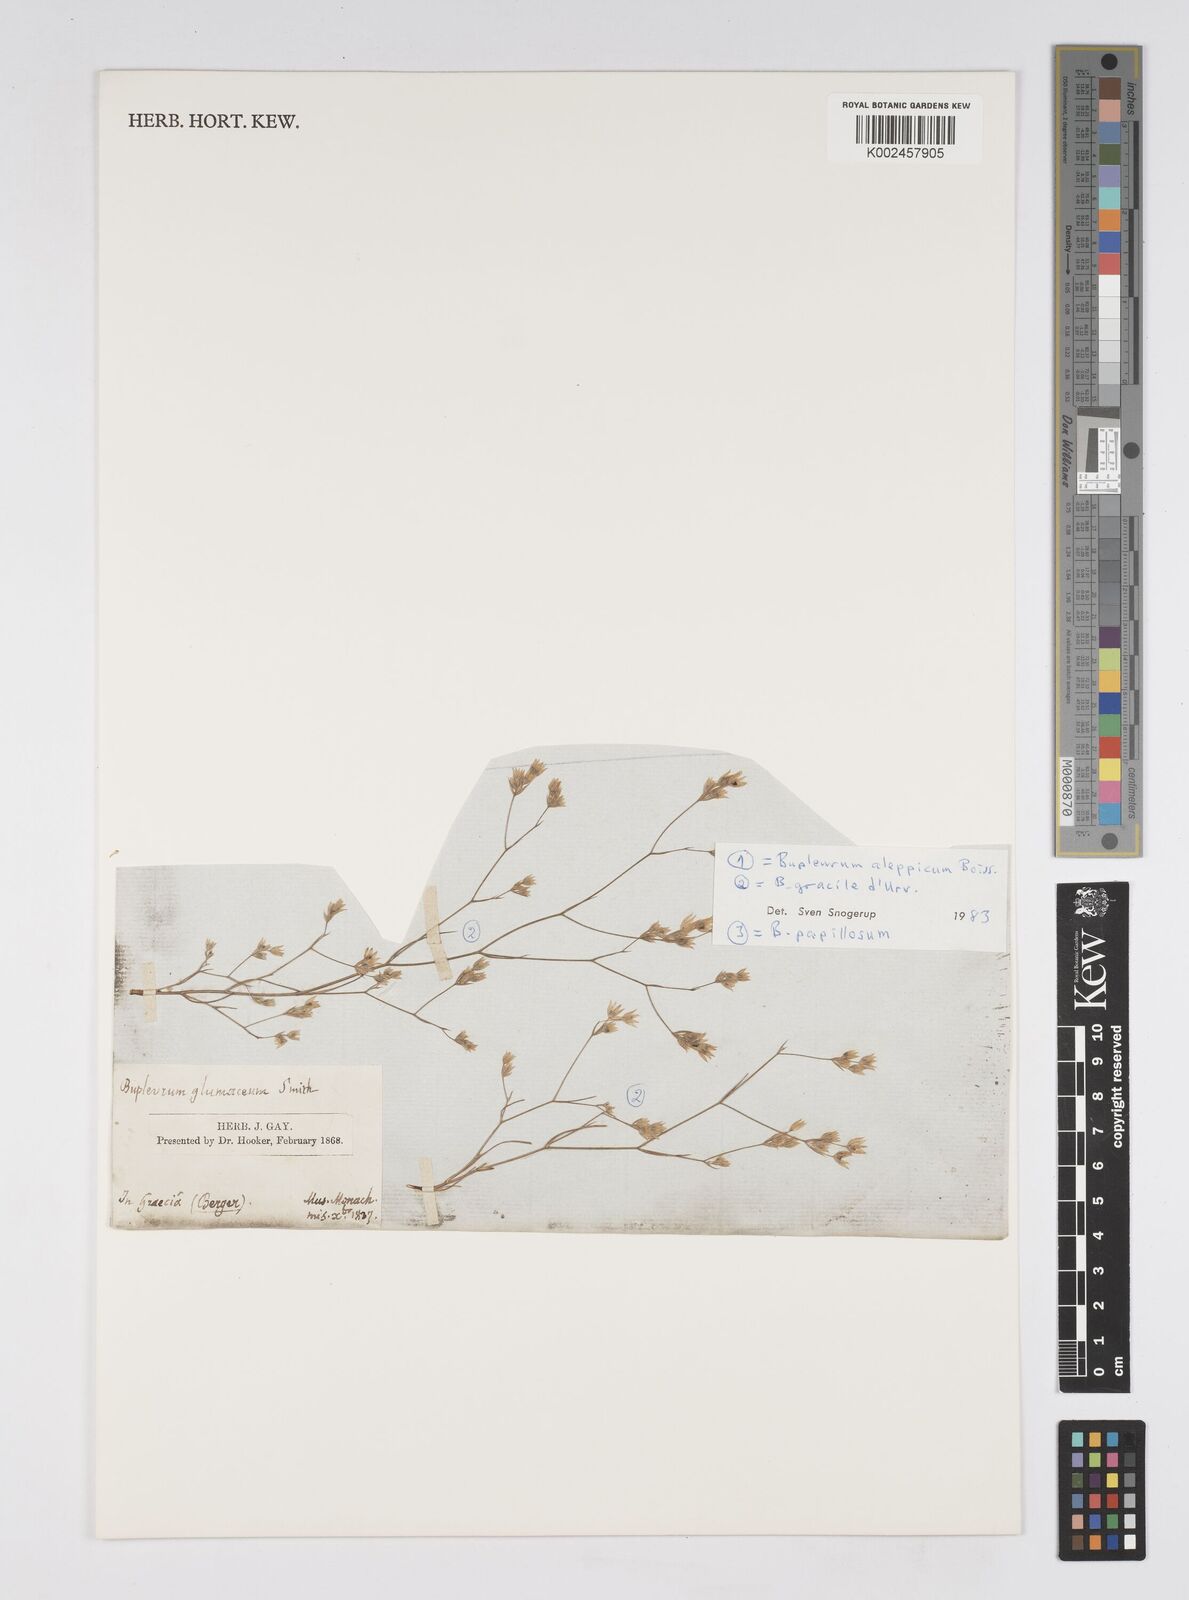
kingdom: Plantae
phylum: Tracheophyta
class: Magnoliopsida
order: Apiales
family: Apiaceae
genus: Bupleurum
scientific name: Bupleurum gracile
